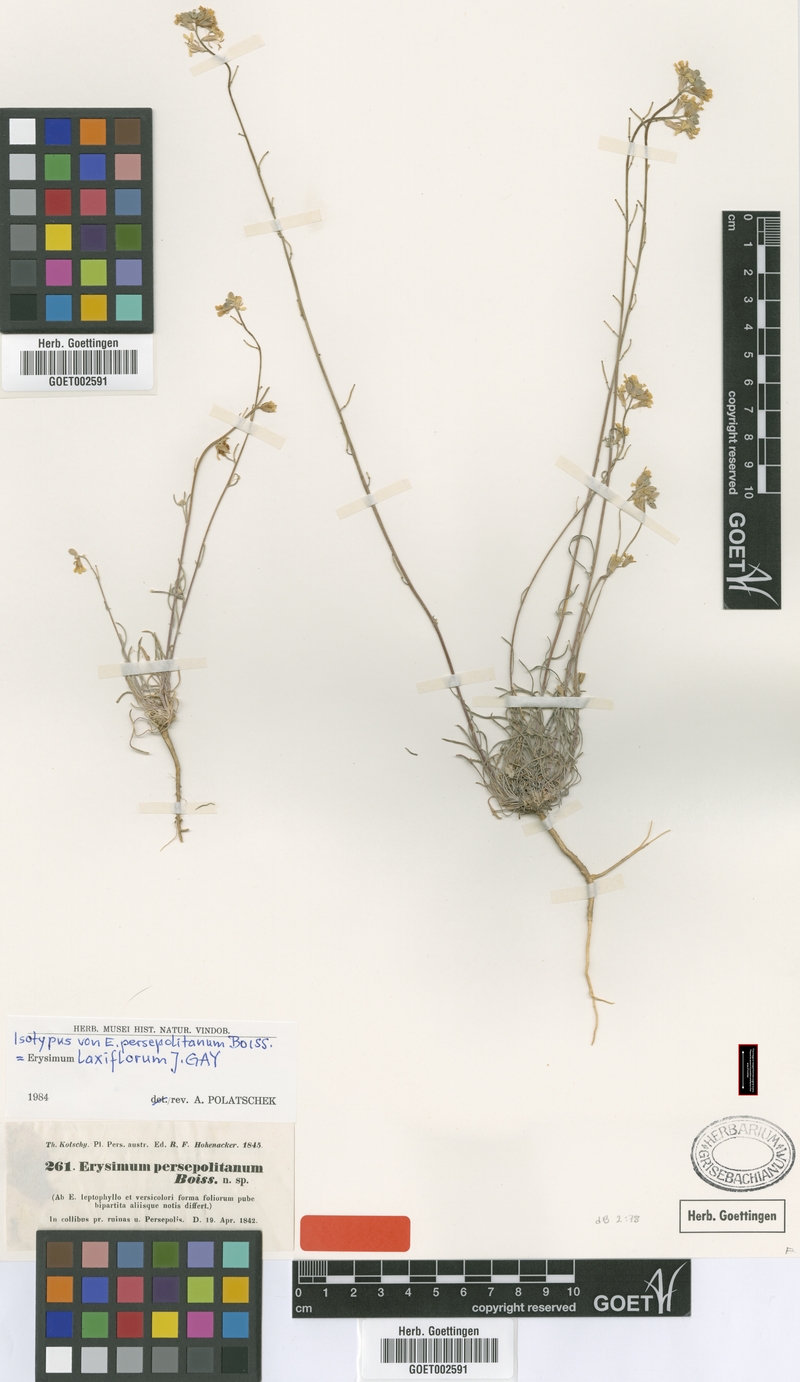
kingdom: Plantae
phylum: Tracheophyta
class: Magnoliopsida
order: Brassicales
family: Brassicaceae
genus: Erysimum
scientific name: Erysimum laxiflorum
